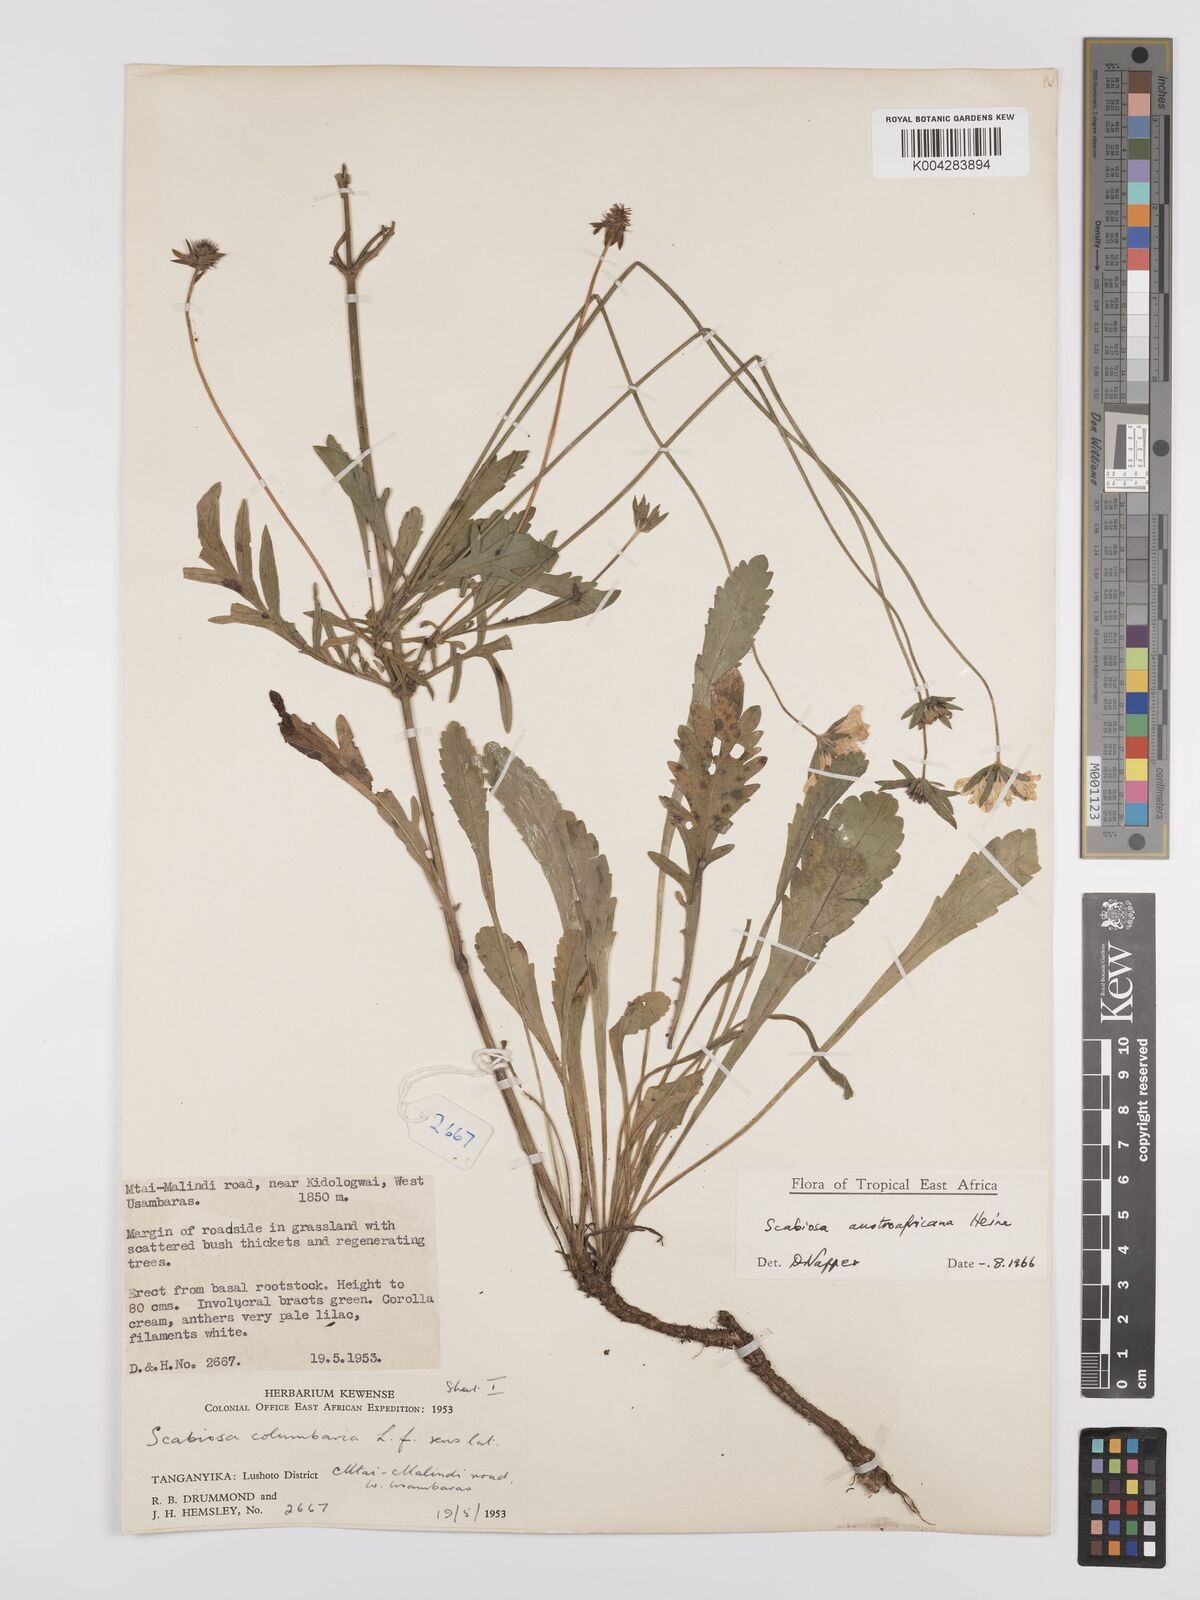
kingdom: Plantae
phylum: Tracheophyta
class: Magnoliopsida
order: Dipsacales
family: Caprifoliaceae
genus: Scabiosa
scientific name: Scabiosa austroafricana
